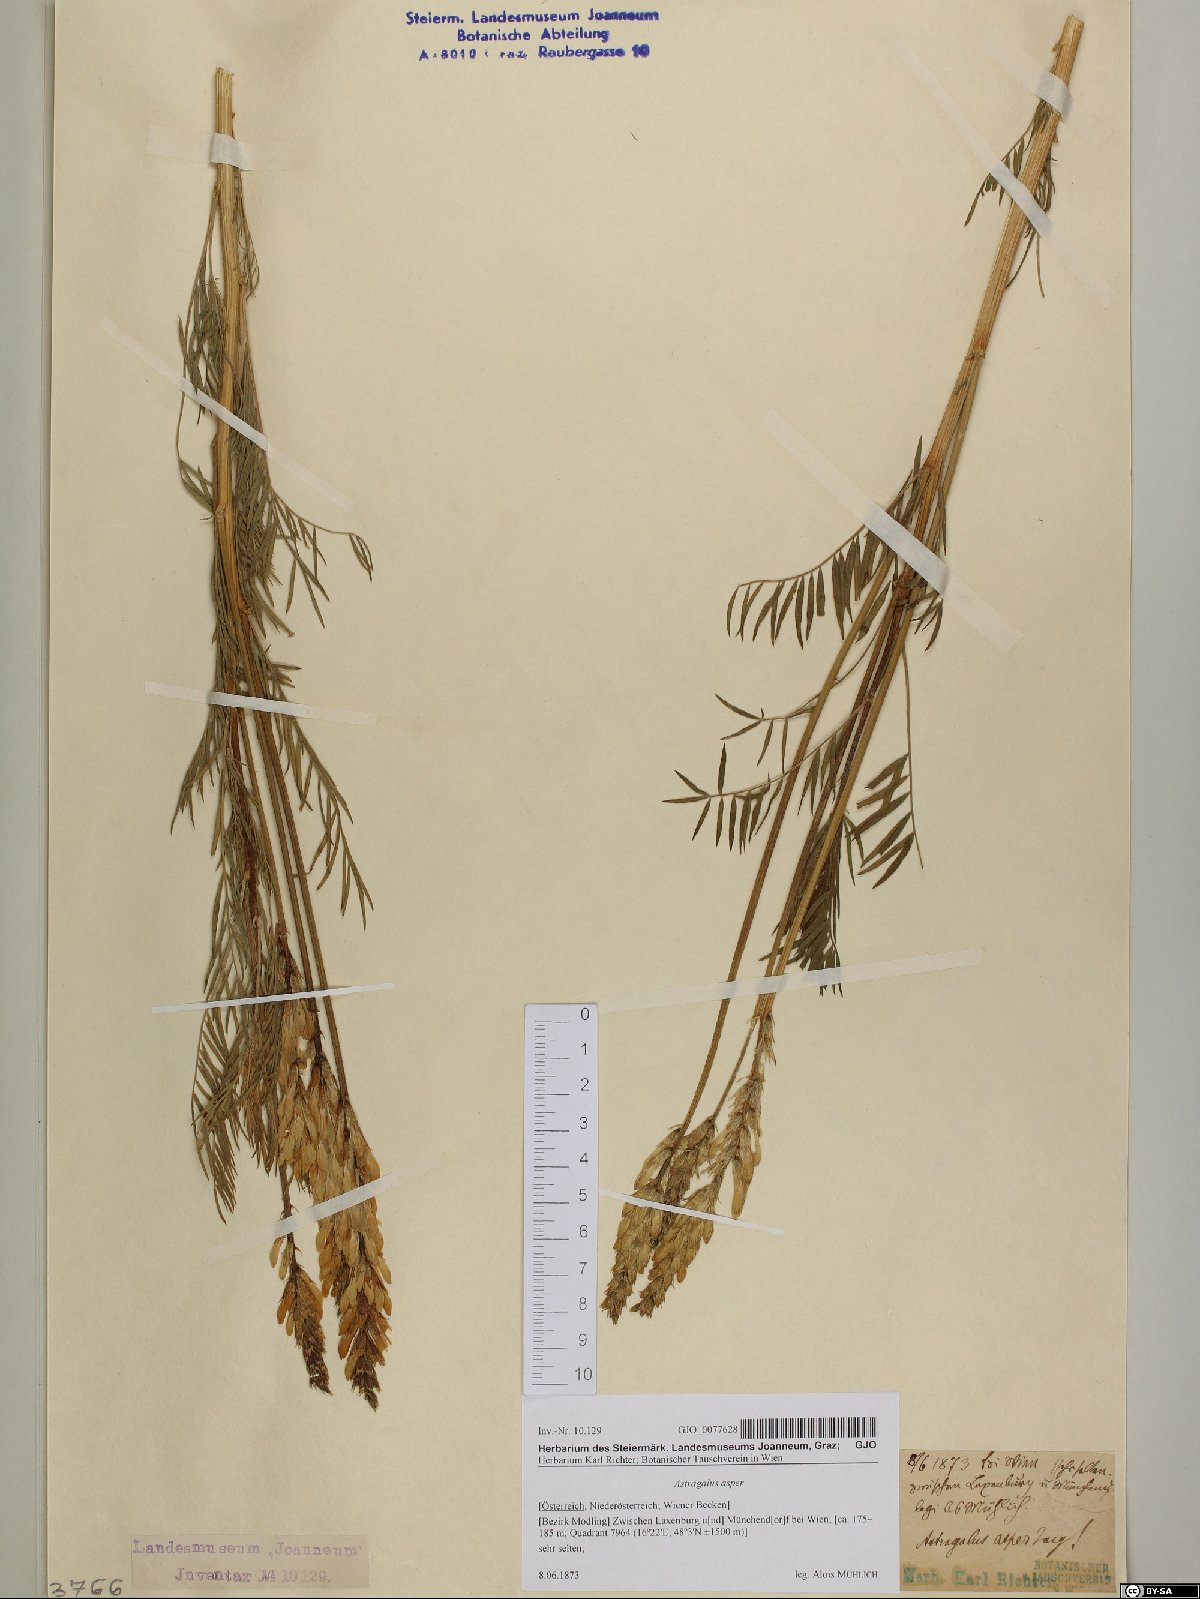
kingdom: Plantae
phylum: Tracheophyta
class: Magnoliopsida
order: Fabales
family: Fabaceae
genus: Astragalus
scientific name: Astragalus asper
